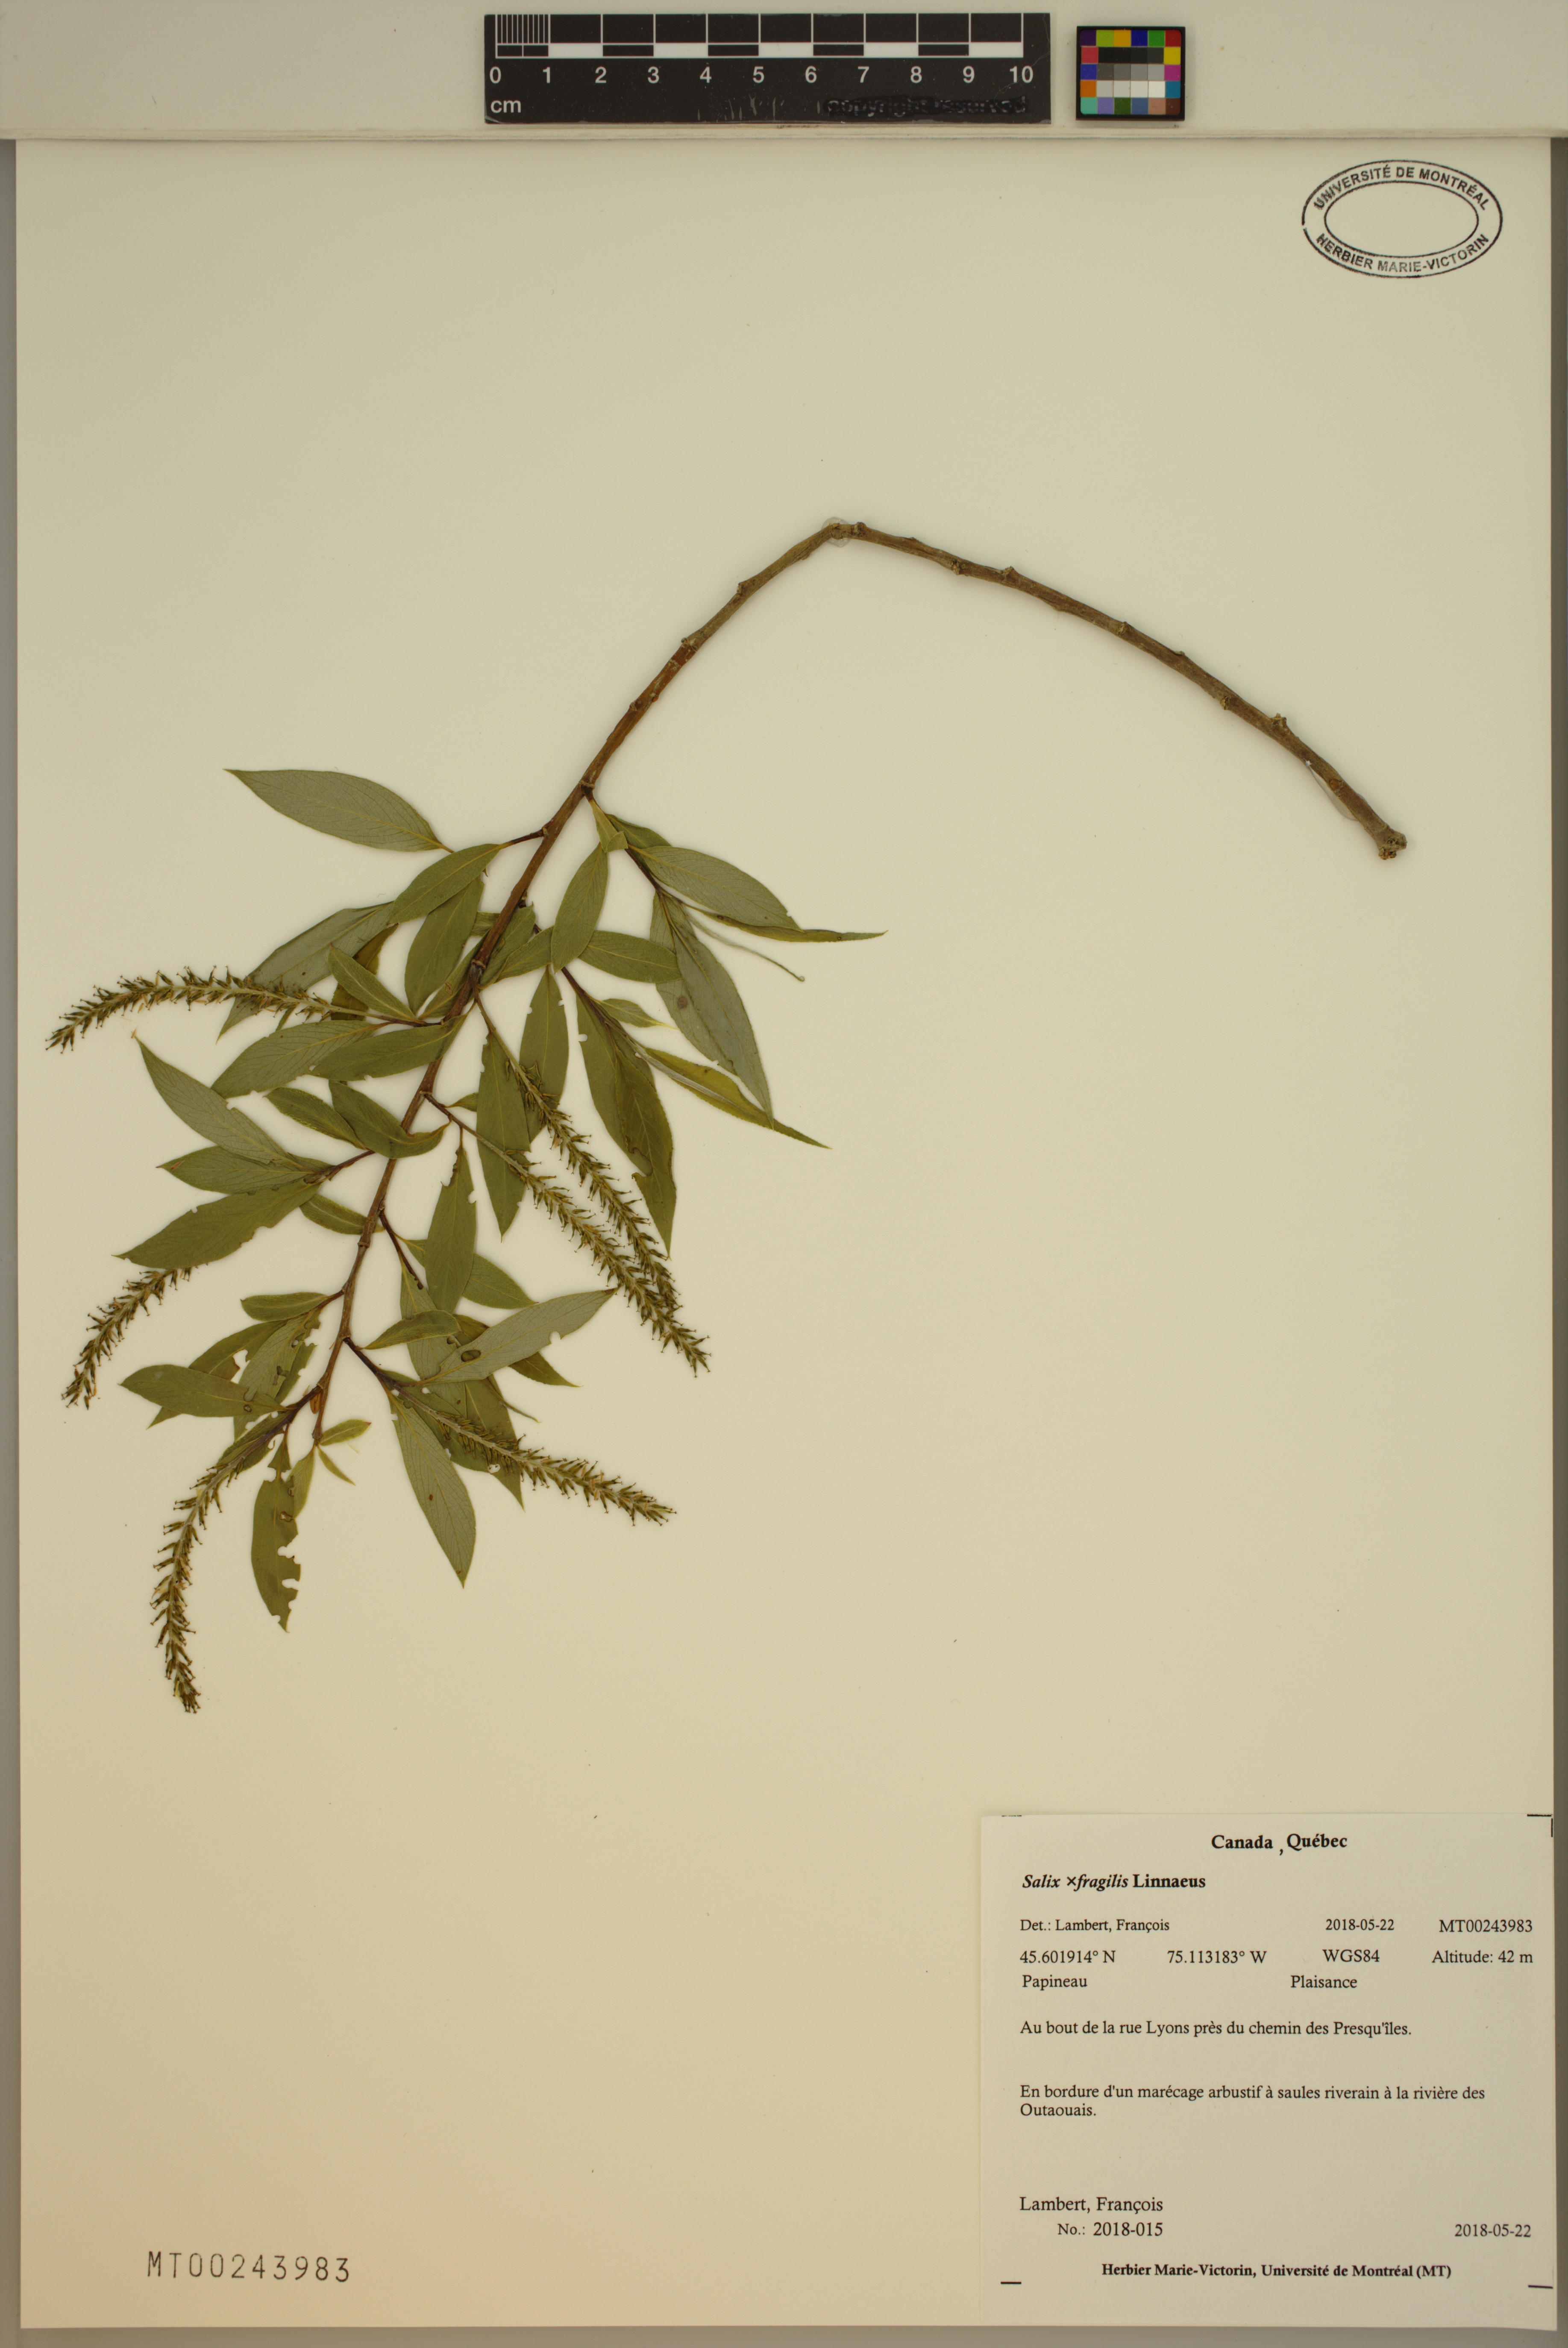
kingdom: Plantae
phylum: Tracheophyta
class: Magnoliopsida
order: Malpighiales
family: Salicaceae
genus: Salix
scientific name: Salix fragilis
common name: Crack willow
